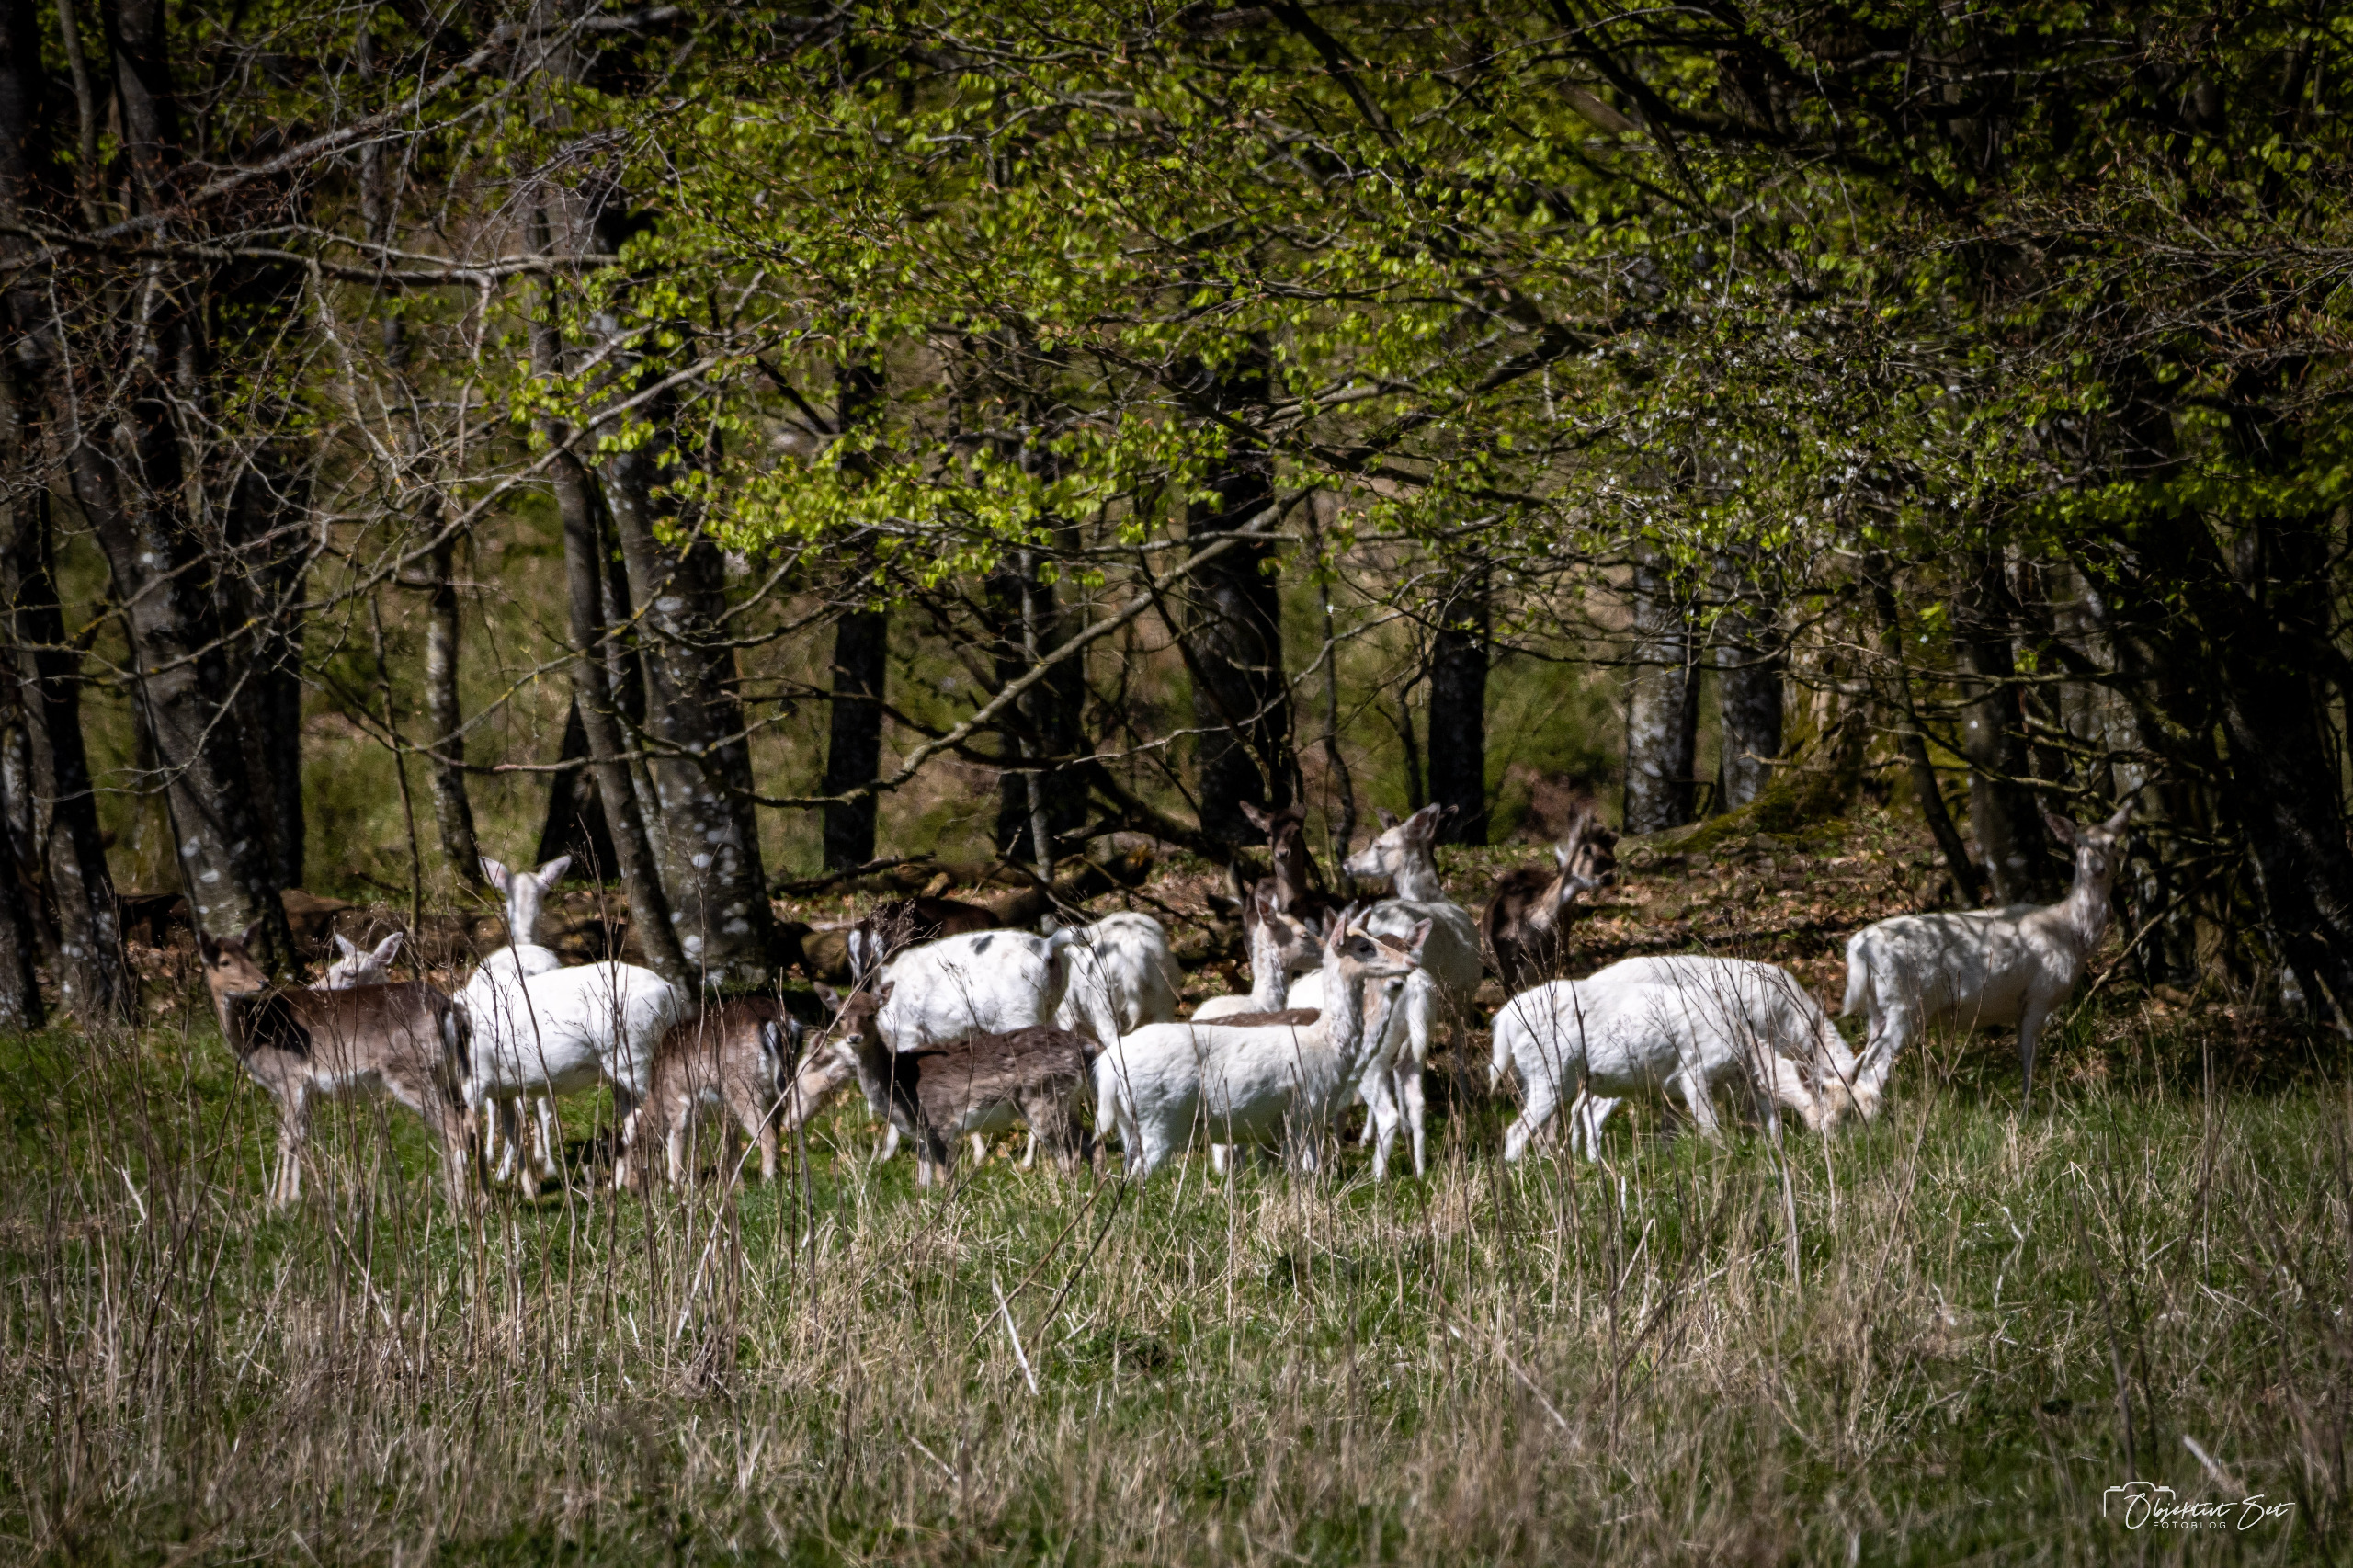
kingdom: Animalia
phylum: Chordata
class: Mammalia
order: Artiodactyla
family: Cervidae
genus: Dama
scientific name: Dama dama
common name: Dådyr
